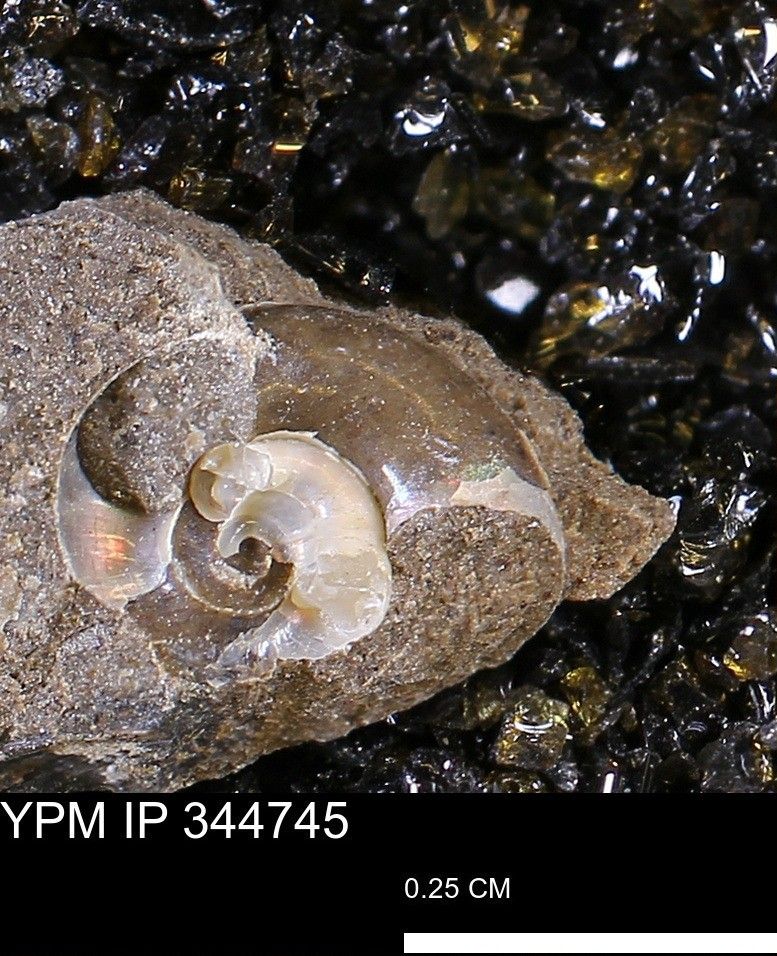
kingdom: Animalia
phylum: Mollusca
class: Cephalopoda
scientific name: Cephalopoda
